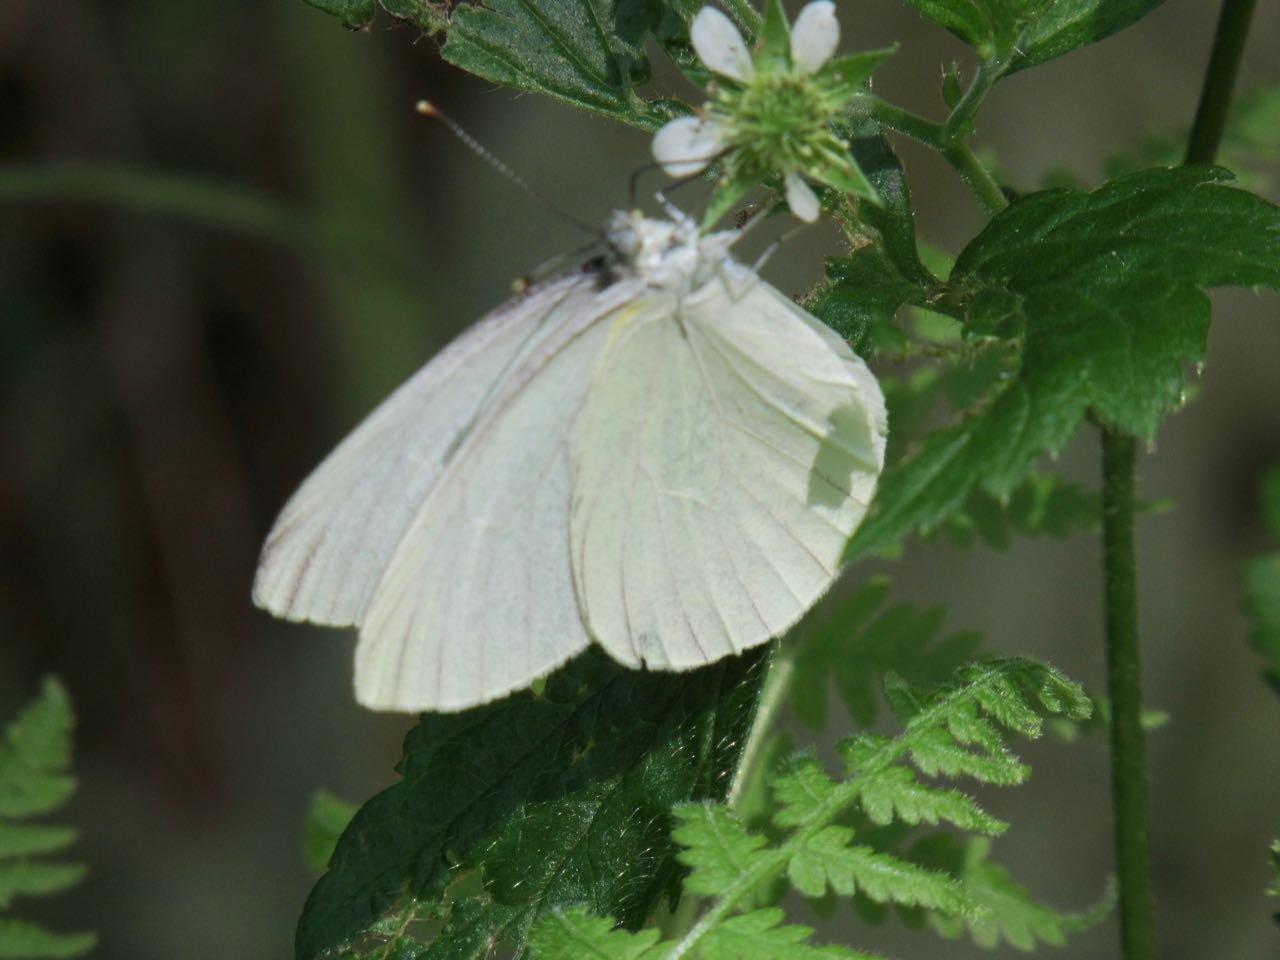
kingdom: Animalia
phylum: Arthropoda
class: Insecta
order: Lepidoptera
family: Pieridae
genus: Pieris
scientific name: Pieris oleracea
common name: Mustard White
